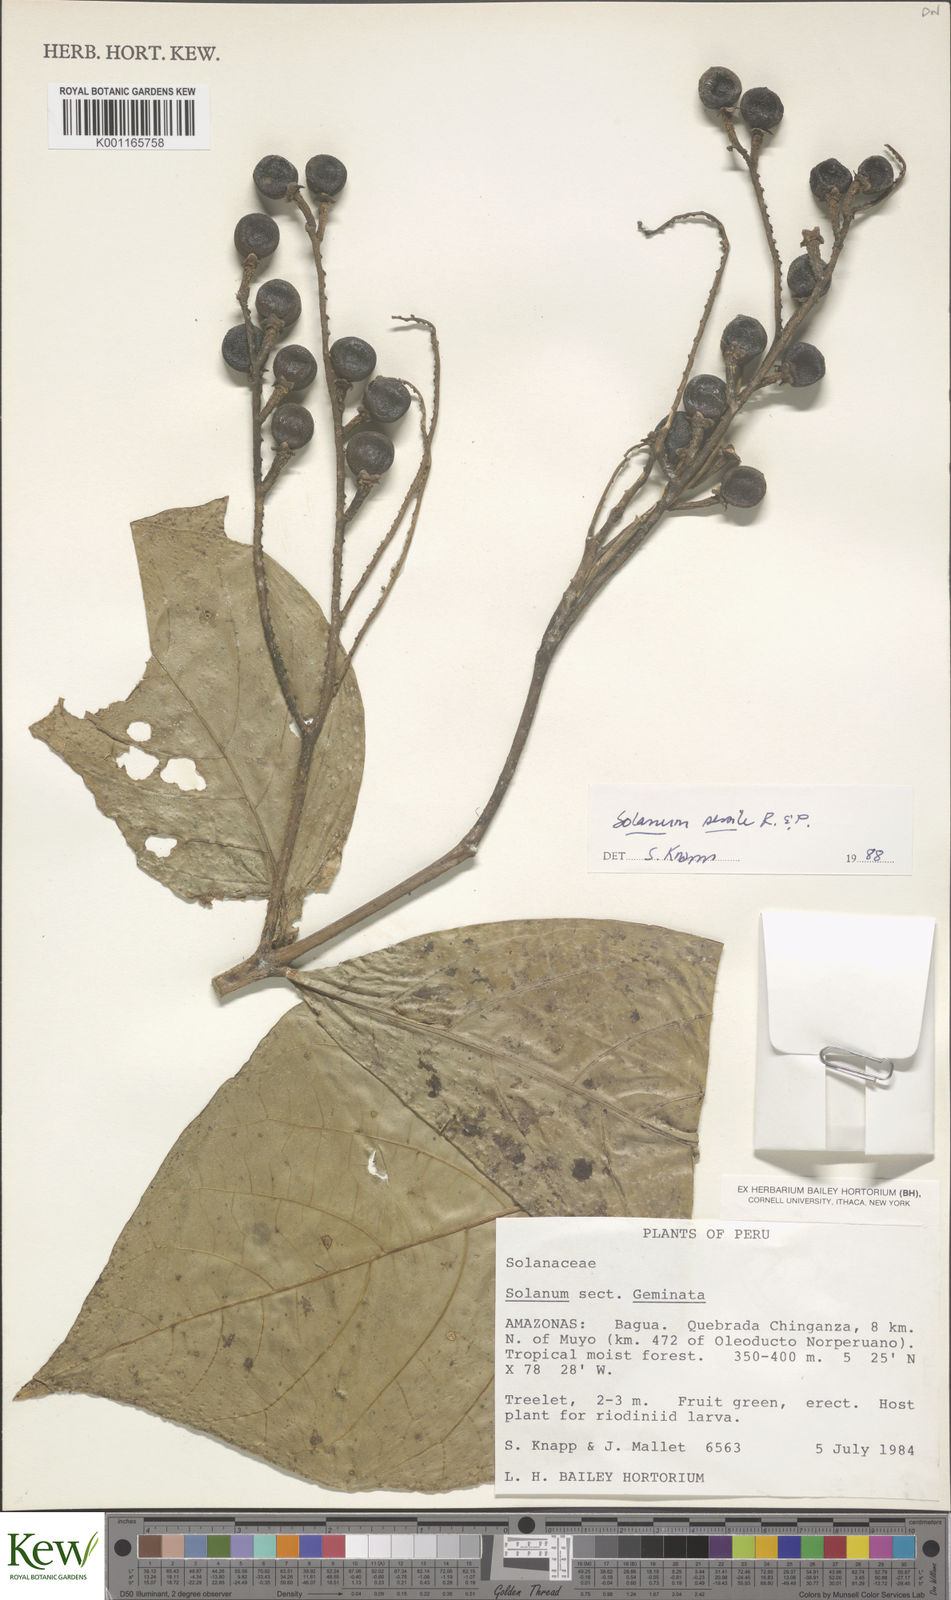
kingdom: Plantae
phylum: Tracheophyta
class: Magnoliopsida
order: Solanales
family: Solanaceae
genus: Solanum
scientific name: Solanum sessile
